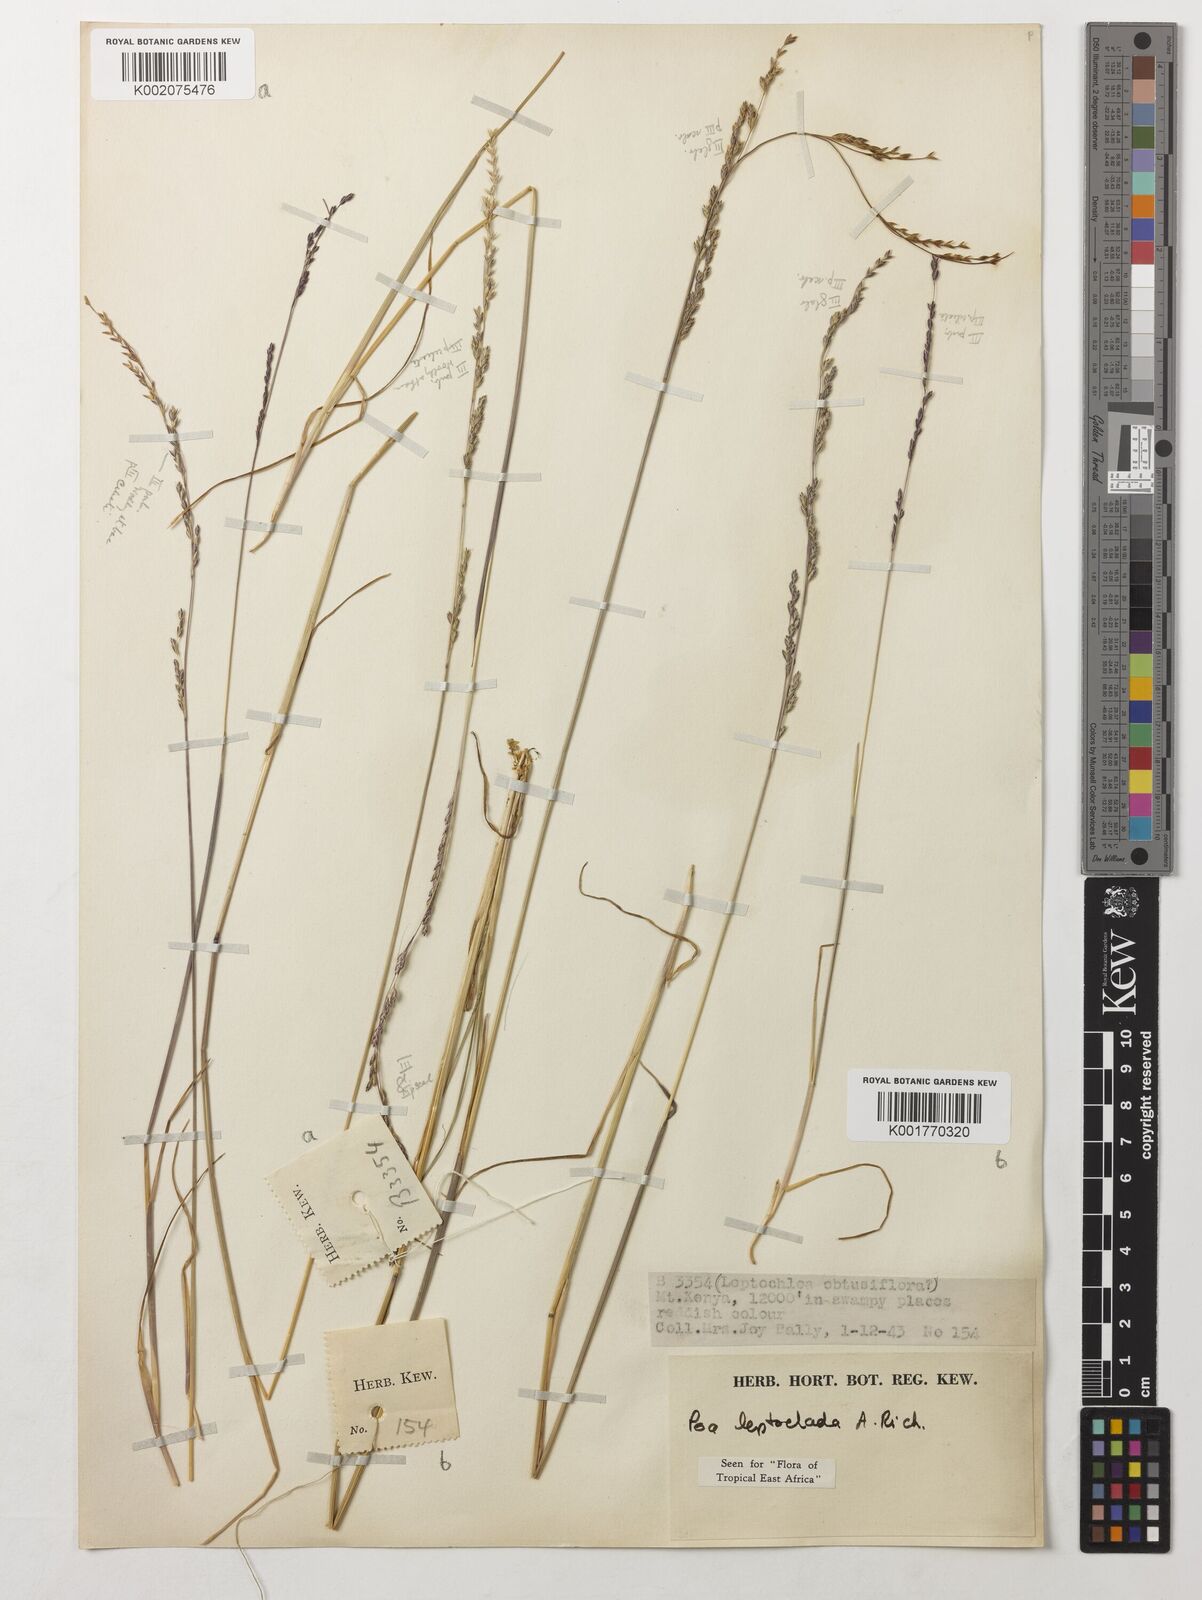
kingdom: Plantae
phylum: Tracheophyta
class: Liliopsida
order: Poales
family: Poaceae
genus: Poa
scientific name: Poa
